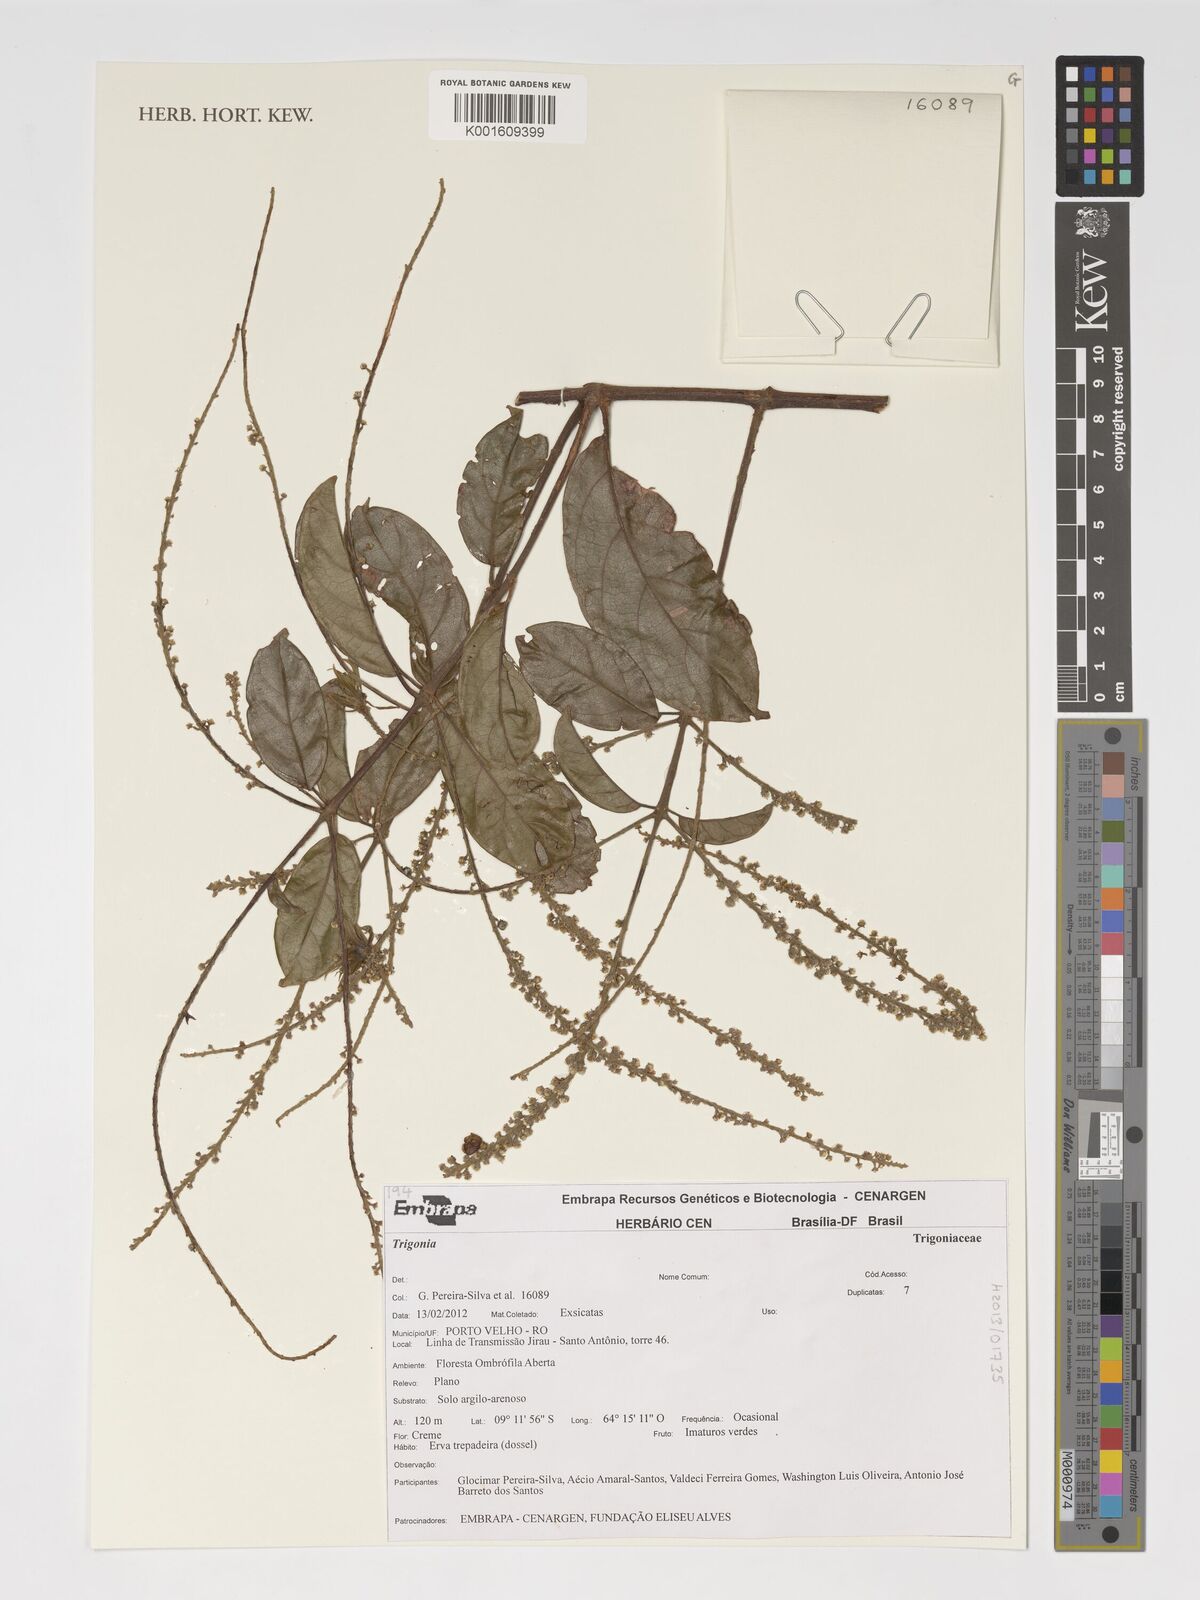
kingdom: Plantae
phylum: Tracheophyta
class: Magnoliopsida
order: Malpighiales
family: Trigoniaceae
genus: Trigonia
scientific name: Trigonia
